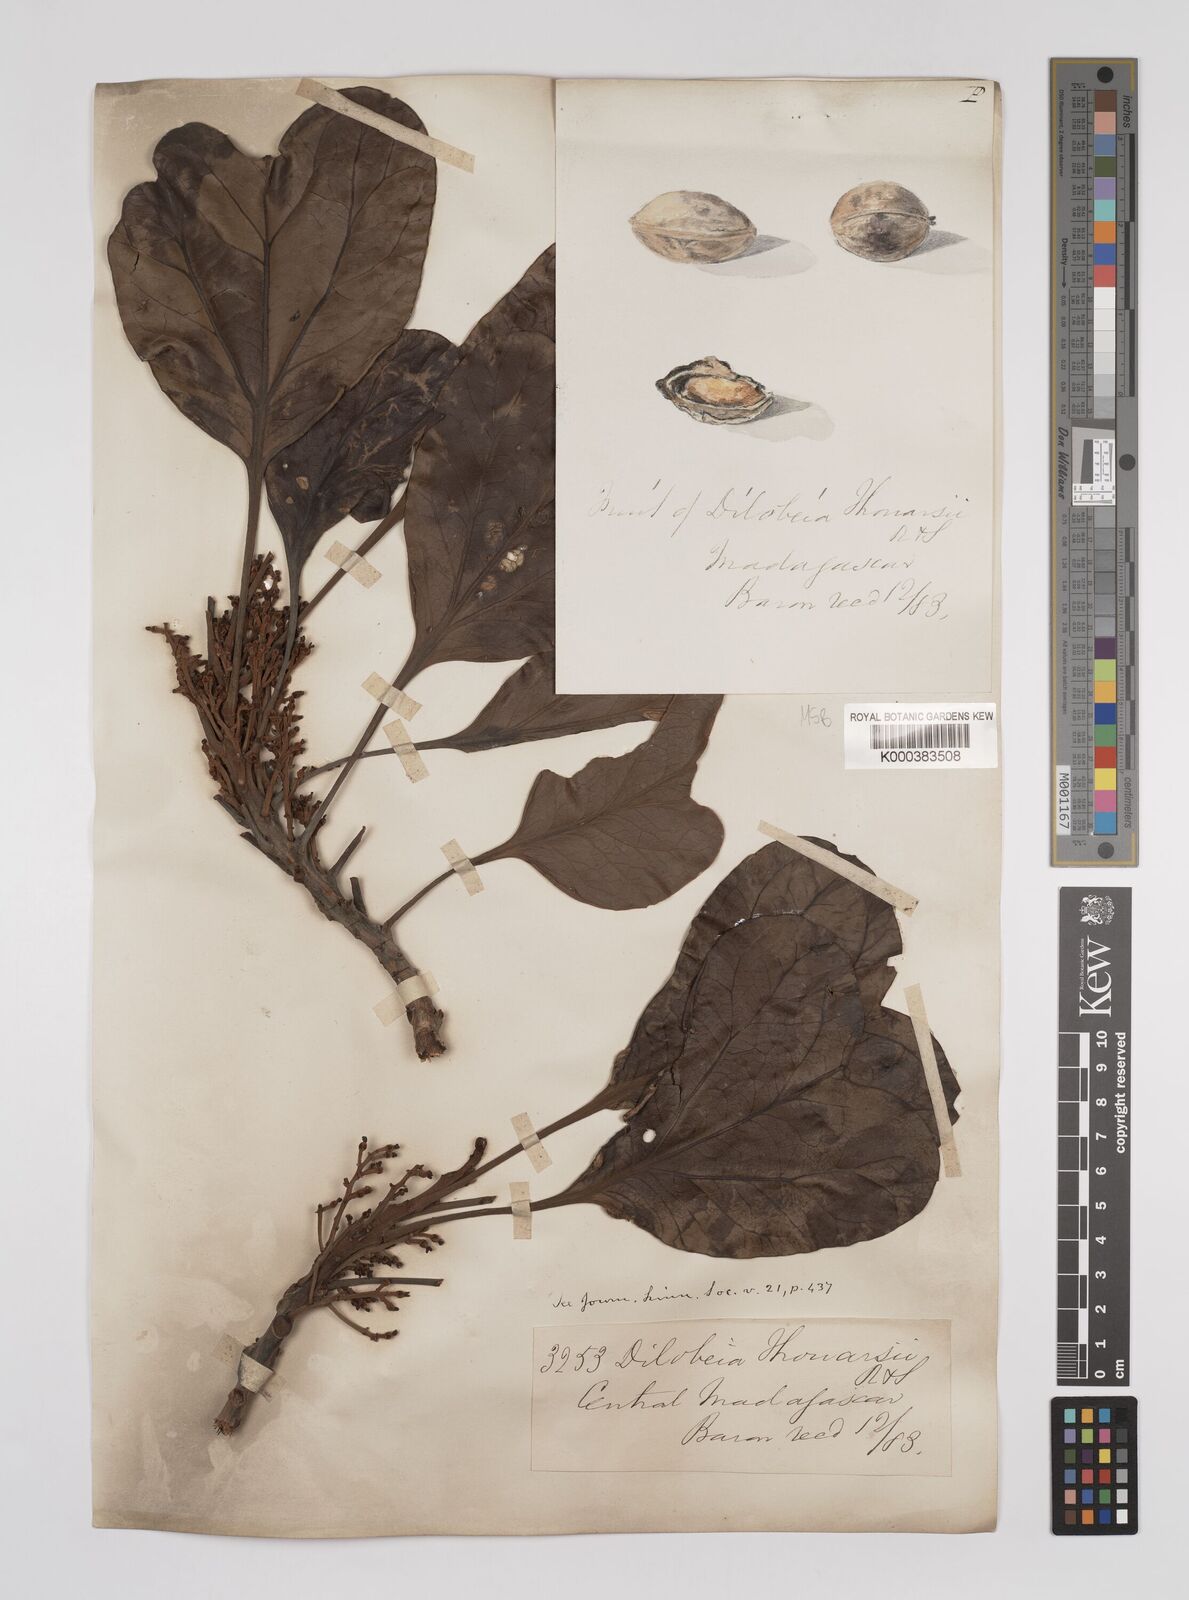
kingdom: Plantae
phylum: Tracheophyta
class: Magnoliopsida
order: Proteales
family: Proteaceae
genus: Dilobeia
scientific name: Dilobeia thouarsii
